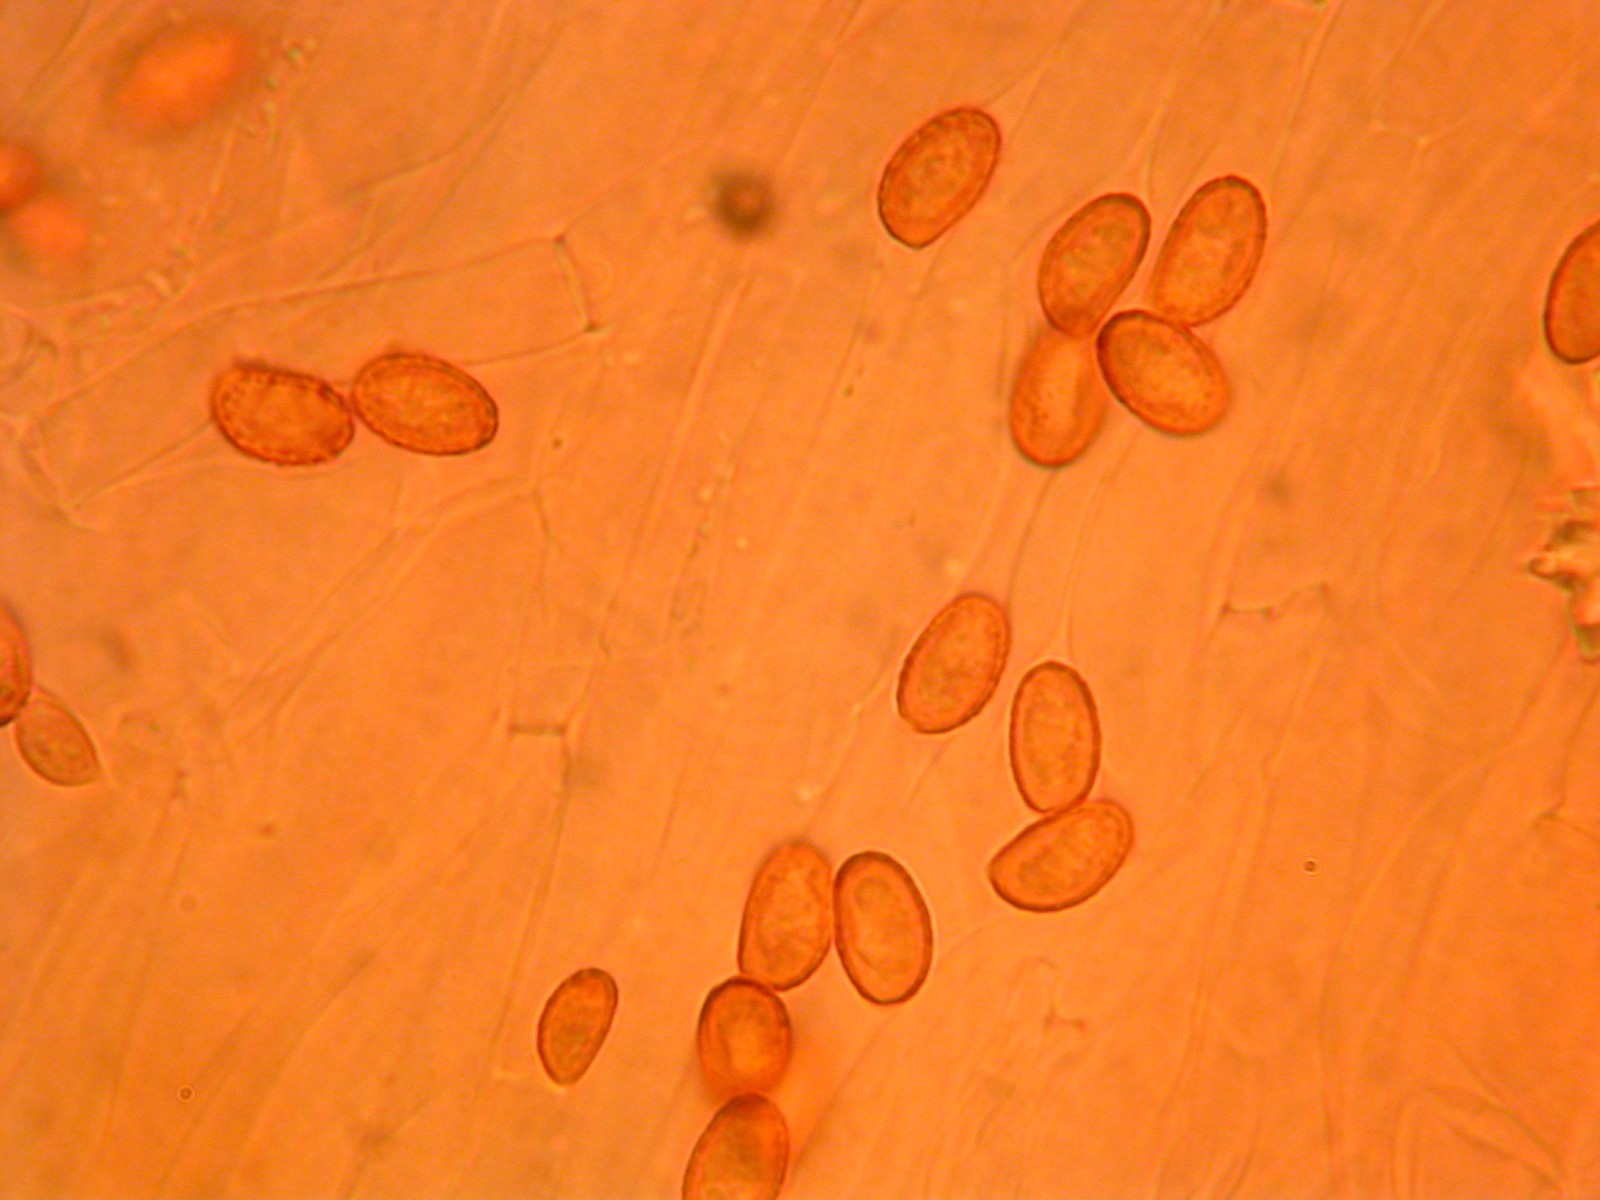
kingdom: Fungi
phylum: Basidiomycota
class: Agaricomycetes
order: Agaricales
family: Cortinariaceae
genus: Cortinarius
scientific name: Cortinarius tenuifulvescens
